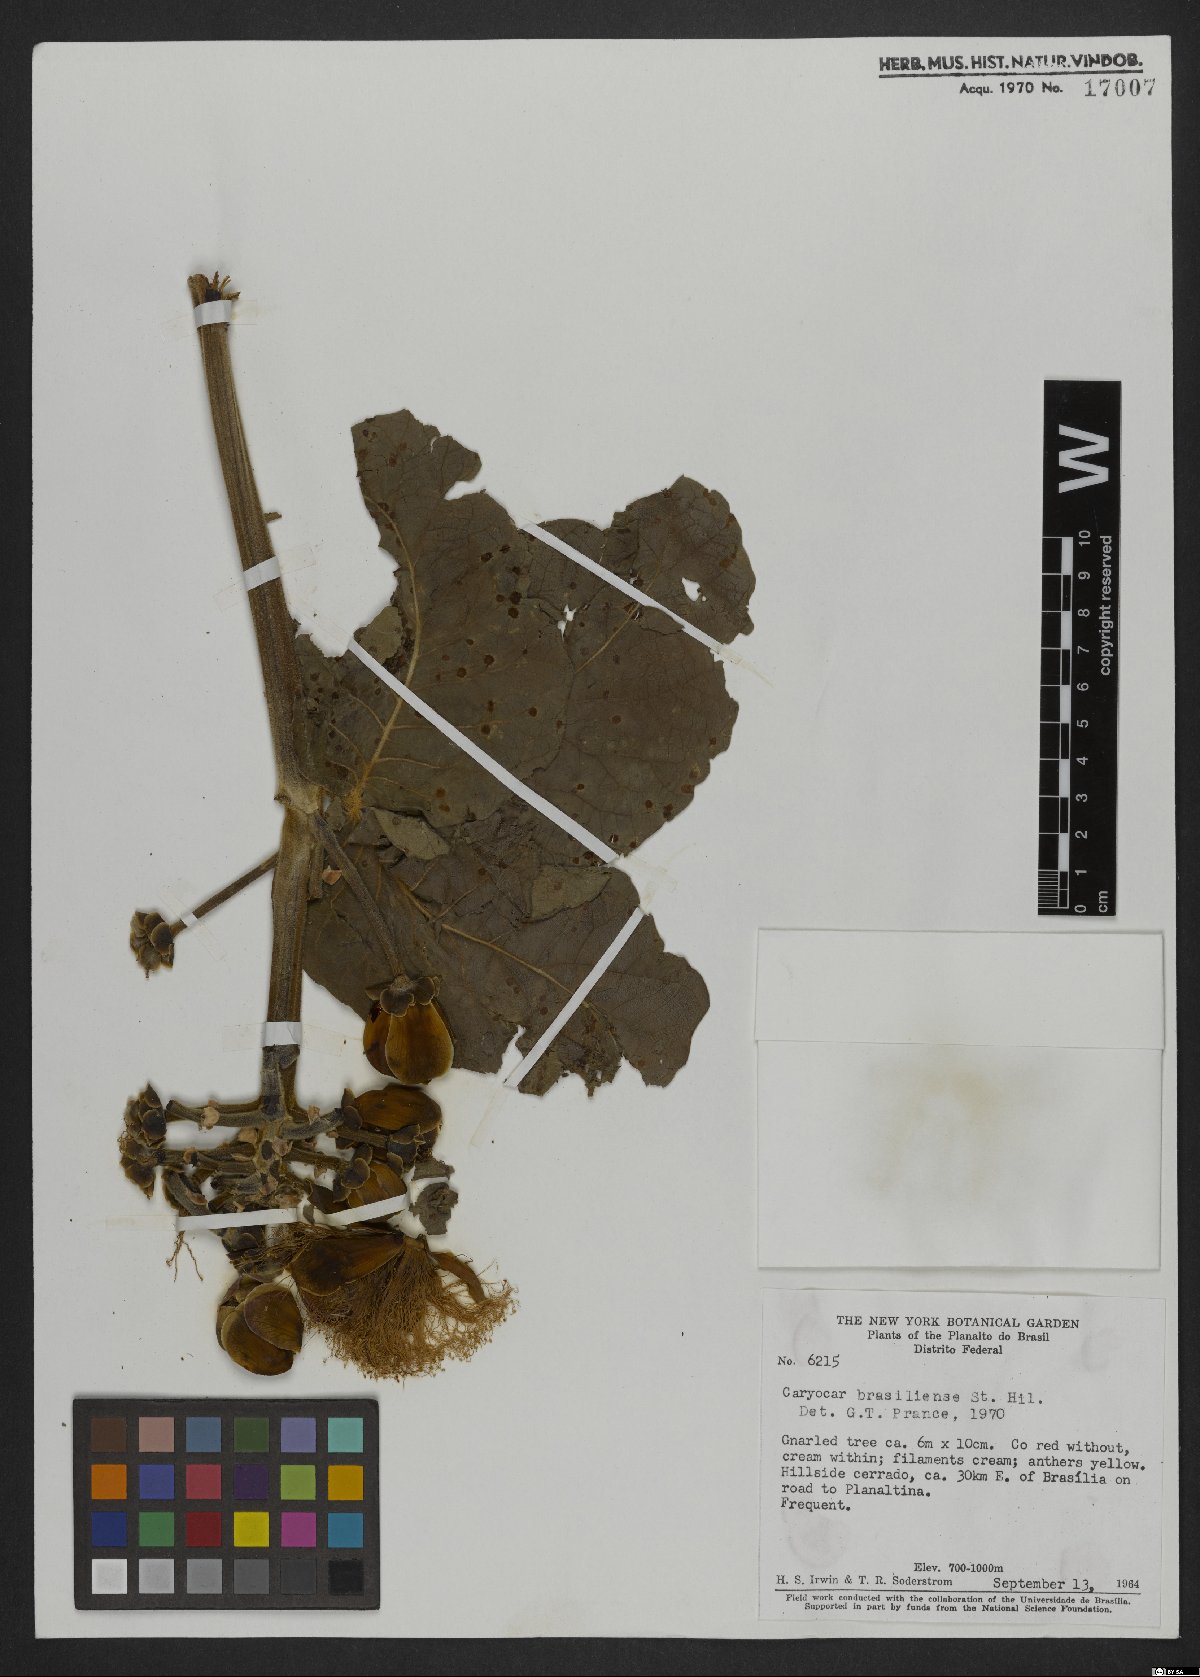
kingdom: Plantae
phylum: Tracheophyta
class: Magnoliopsida
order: Malpighiales
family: Caryocaraceae
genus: Caryocar
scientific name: Caryocar brasiliense
